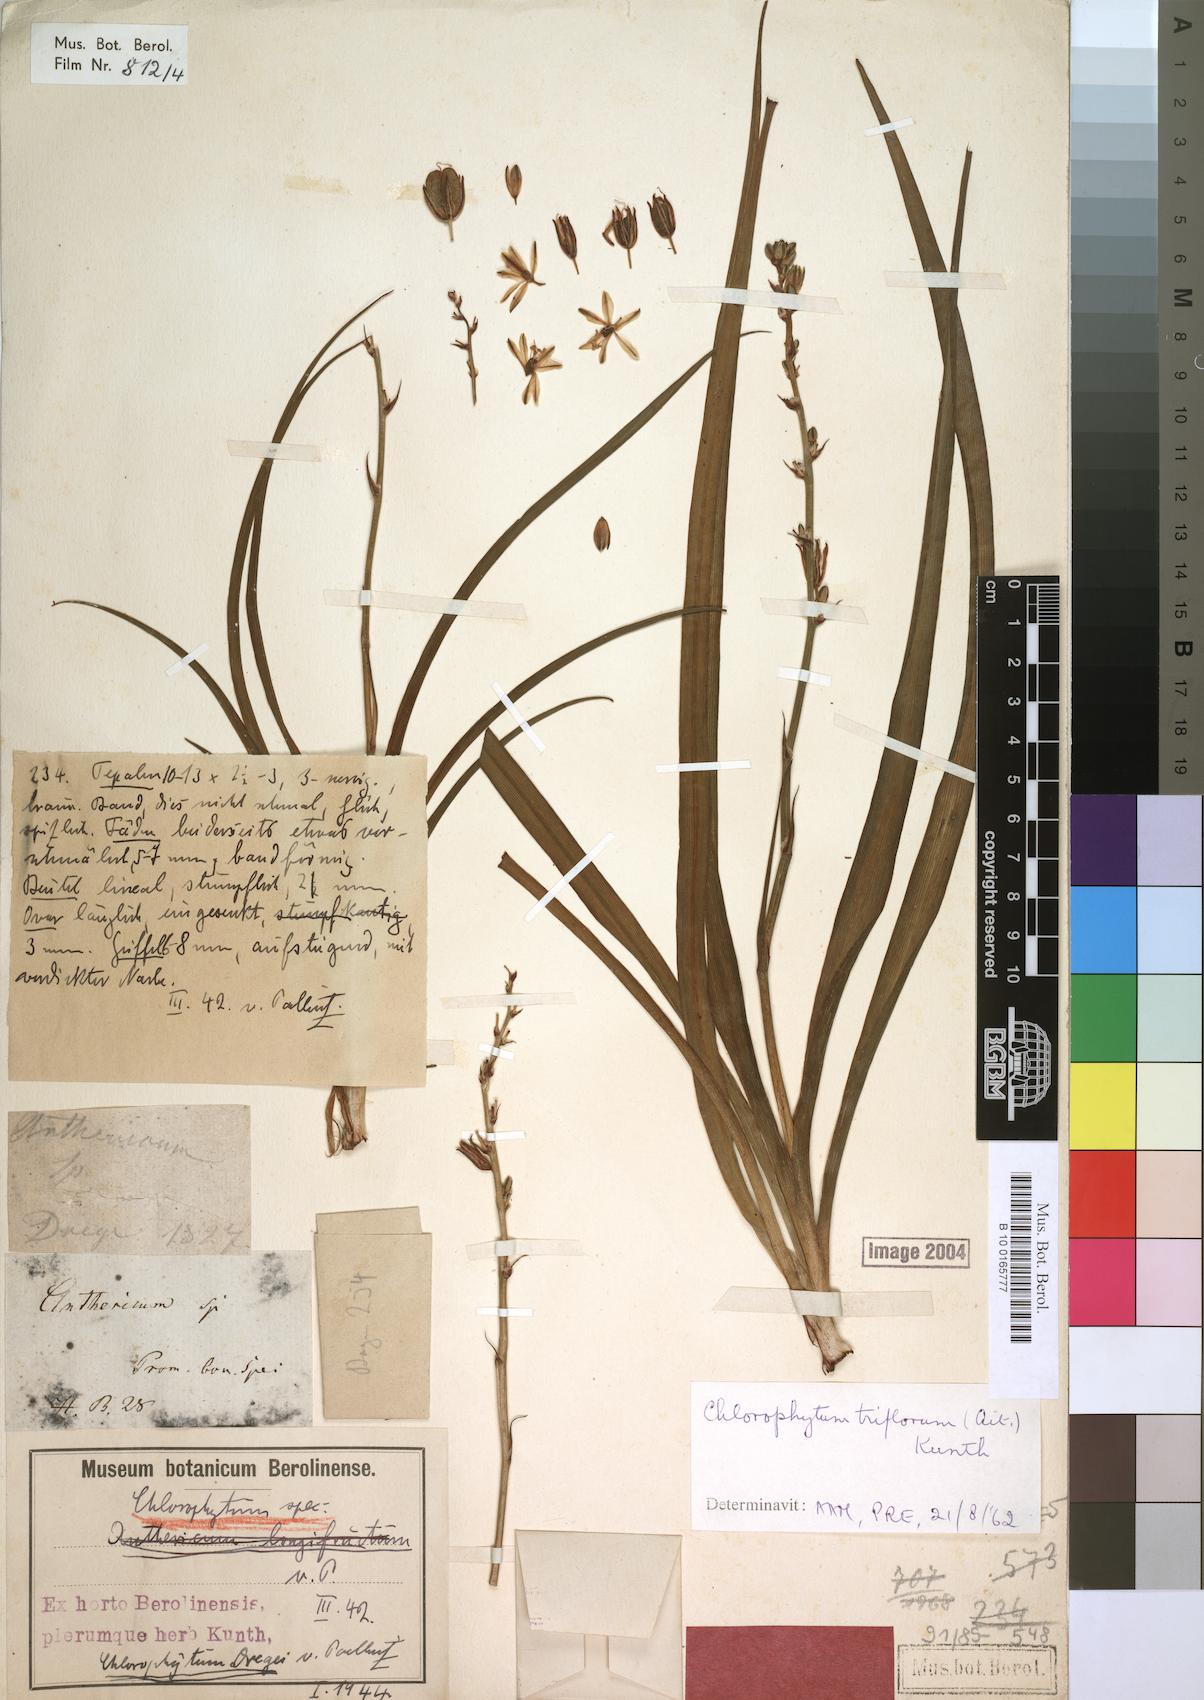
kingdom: Plantae
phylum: Tracheophyta
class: Liliopsida
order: Asparagales
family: Asparagaceae
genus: Chlorophytum
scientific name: Chlorophytum triflorum
